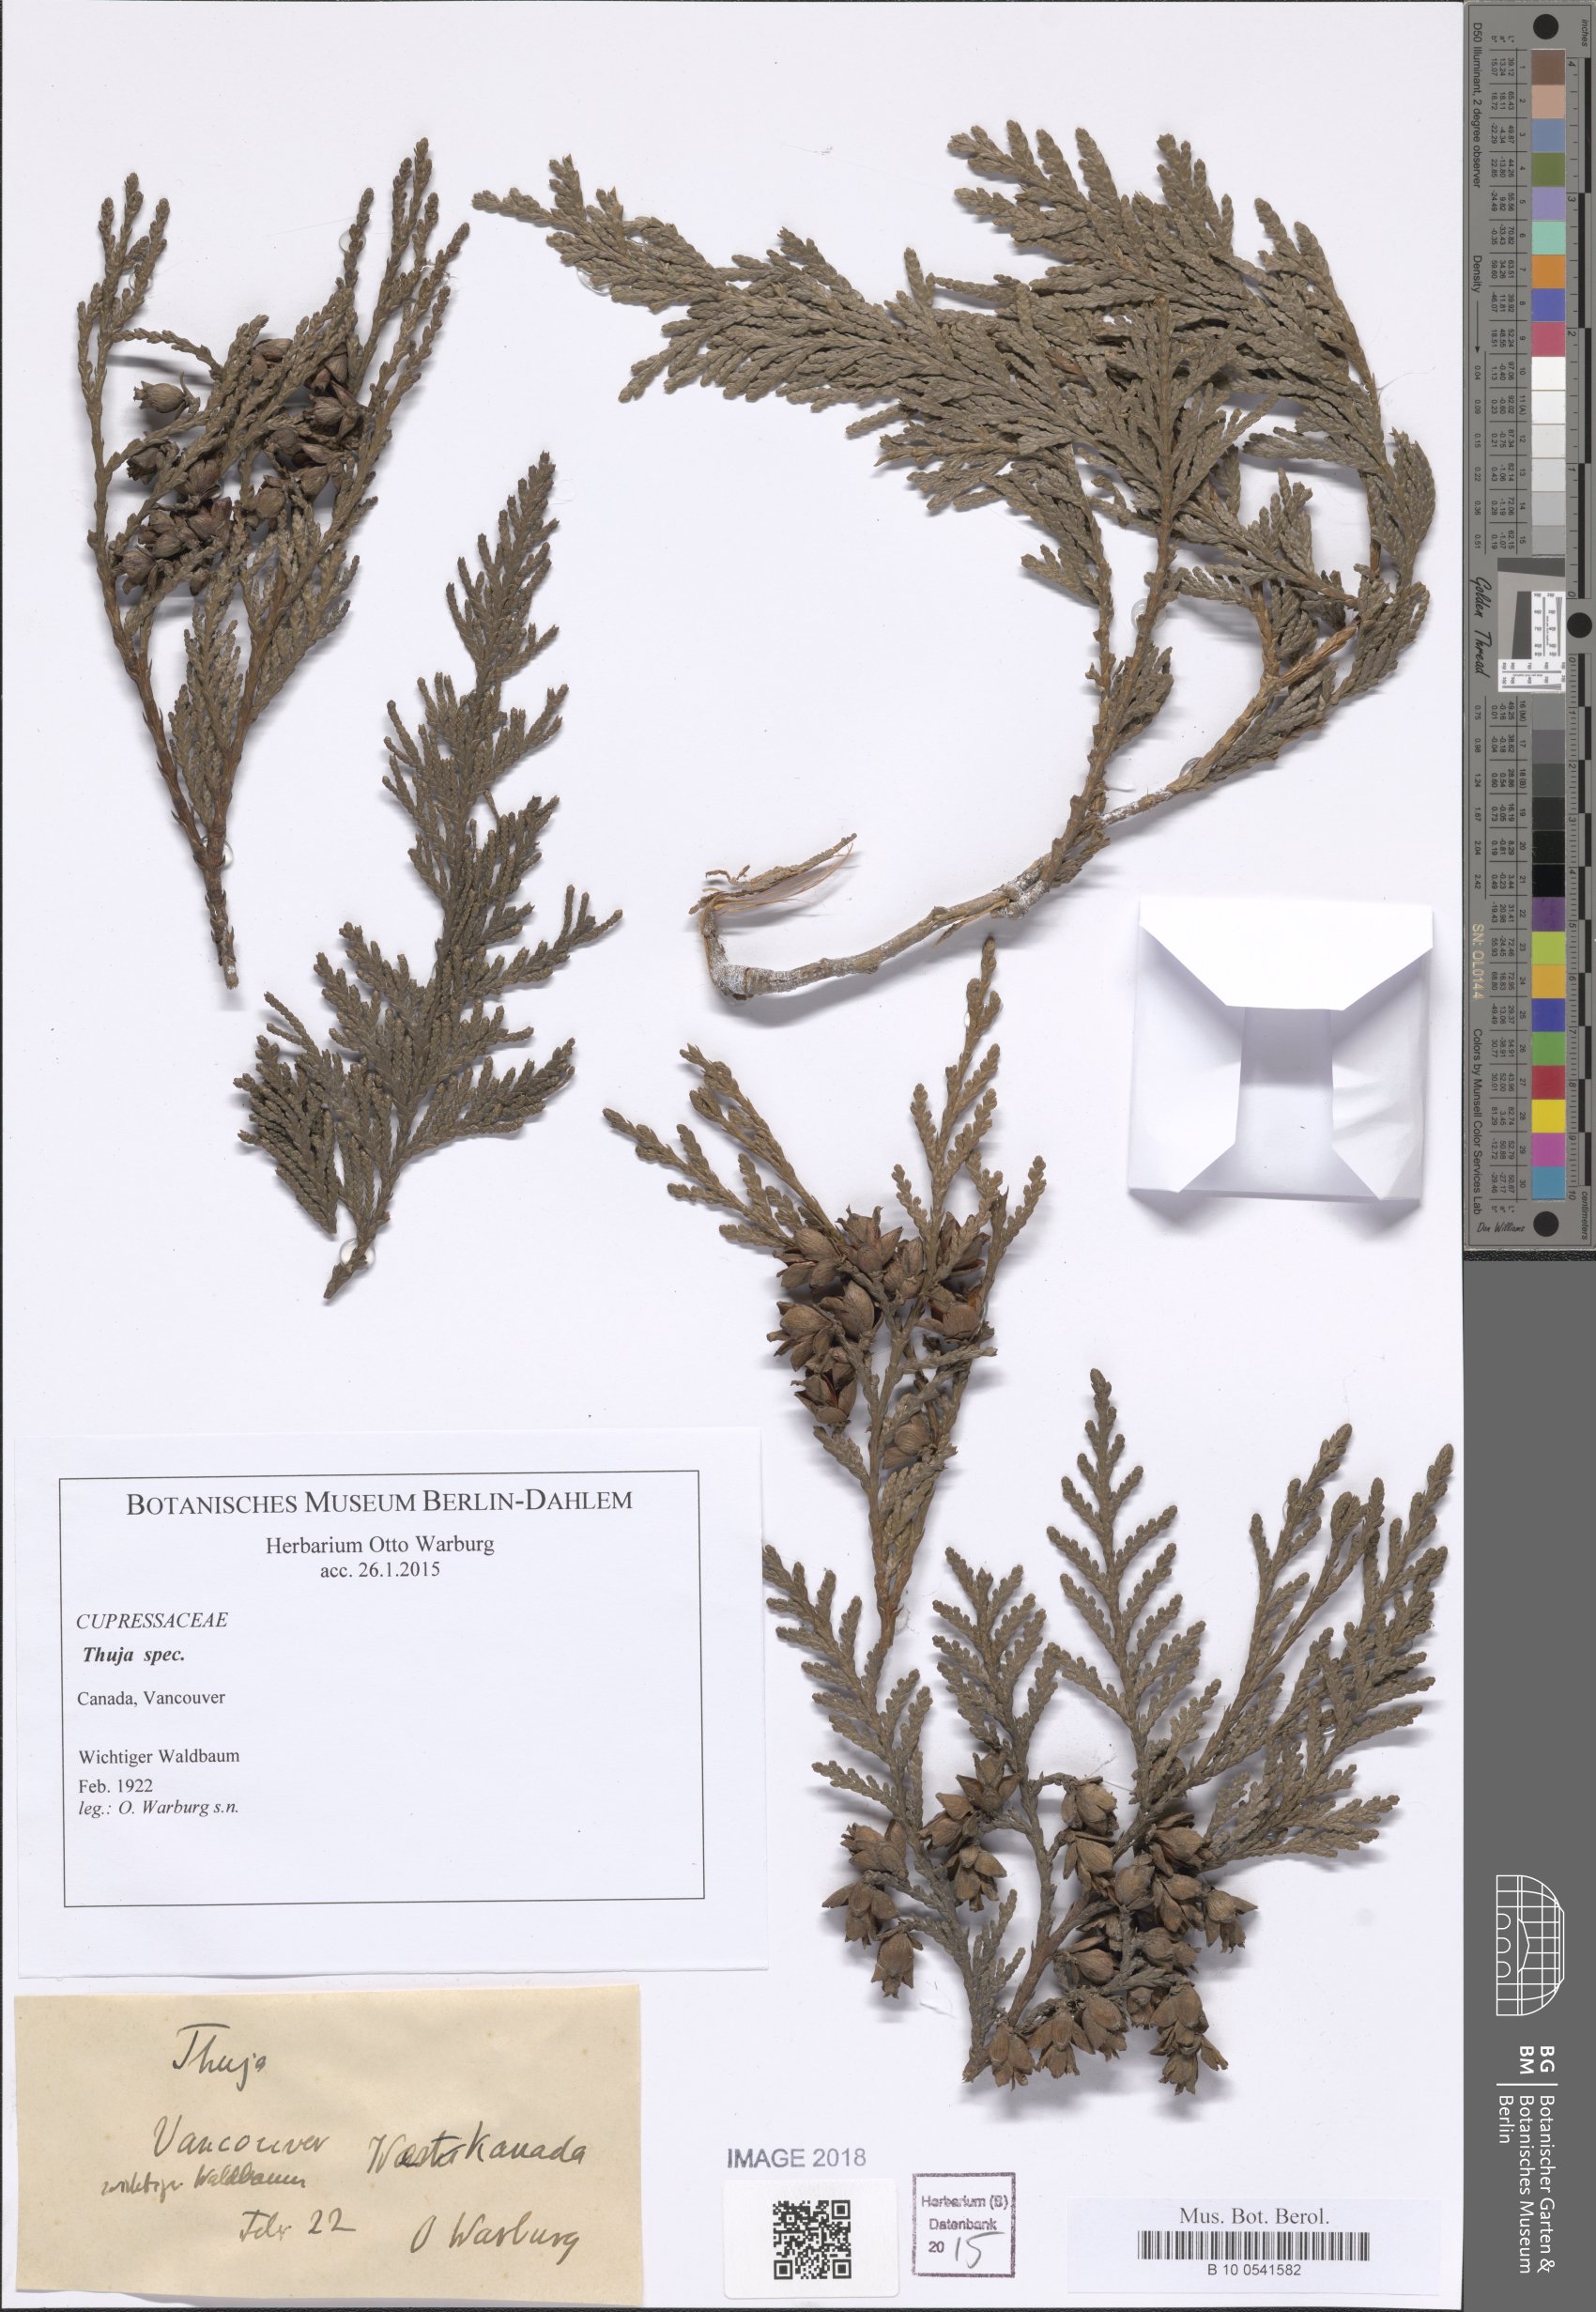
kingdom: Plantae
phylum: Tracheophyta
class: Pinopsida
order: Pinales
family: Cupressaceae
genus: Thuja
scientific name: Thuja
